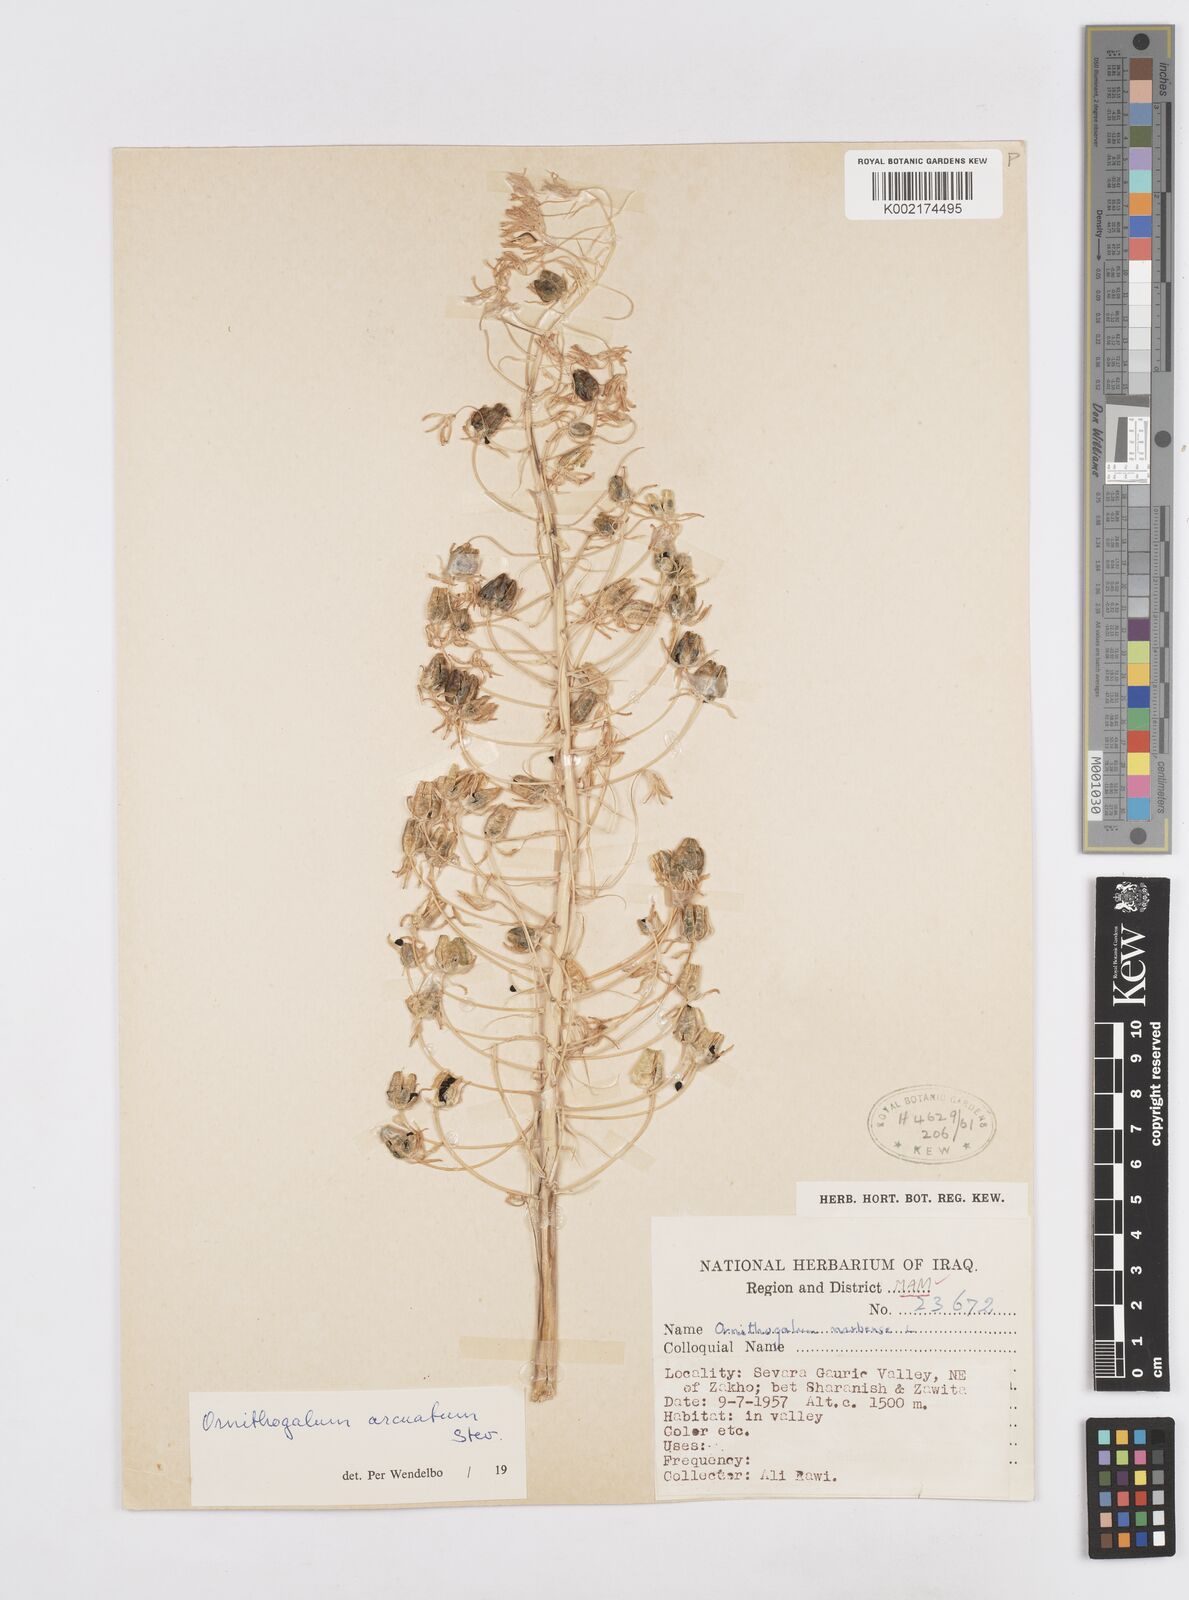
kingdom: Plantae
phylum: Tracheophyta
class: Liliopsida
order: Asparagales
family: Asparagaceae
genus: Ornithogalum
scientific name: Ornithogalum arcuatum
